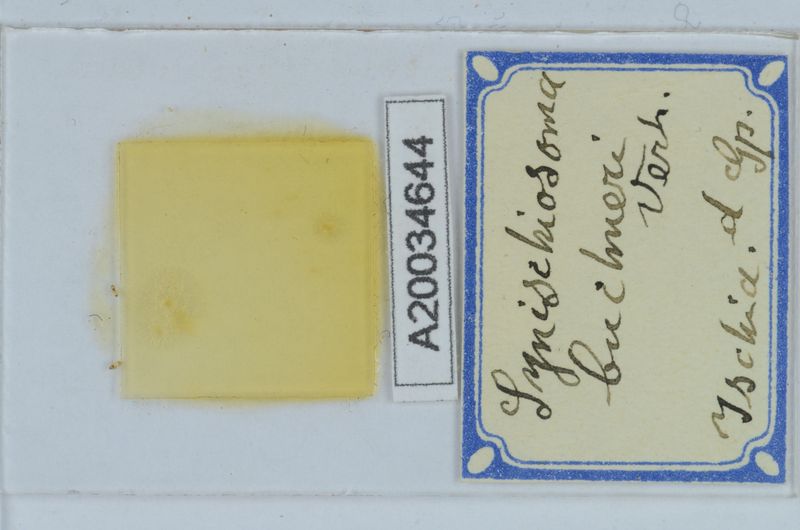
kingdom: Animalia
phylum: Arthropoda
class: Diplopoda
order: Chordeumatida
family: Craspedosomatidae
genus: Synischiosoma
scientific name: Synischiosoma buchneri
